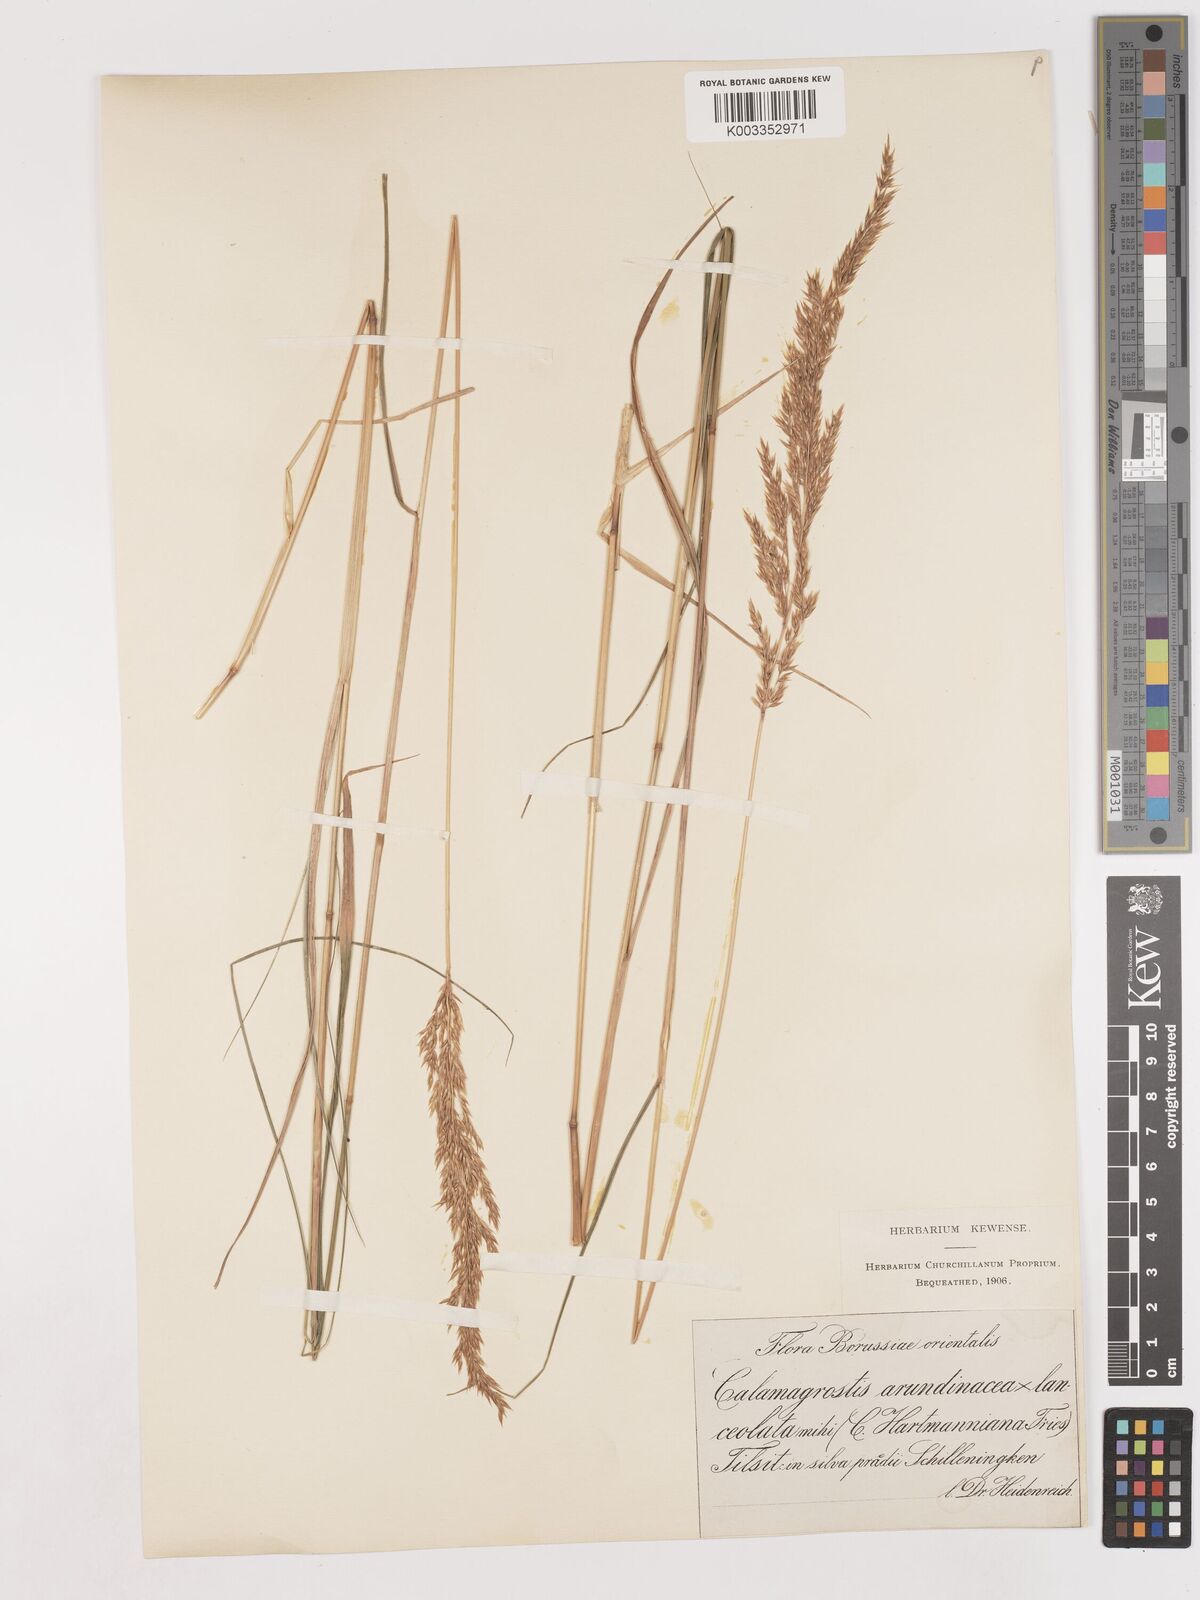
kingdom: Plantae
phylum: Tracheophyta
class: Liliopsida
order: Poales
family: Poaceae
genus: Calamagrostis
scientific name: Calamagrostis canescens
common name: Purple small-reed
